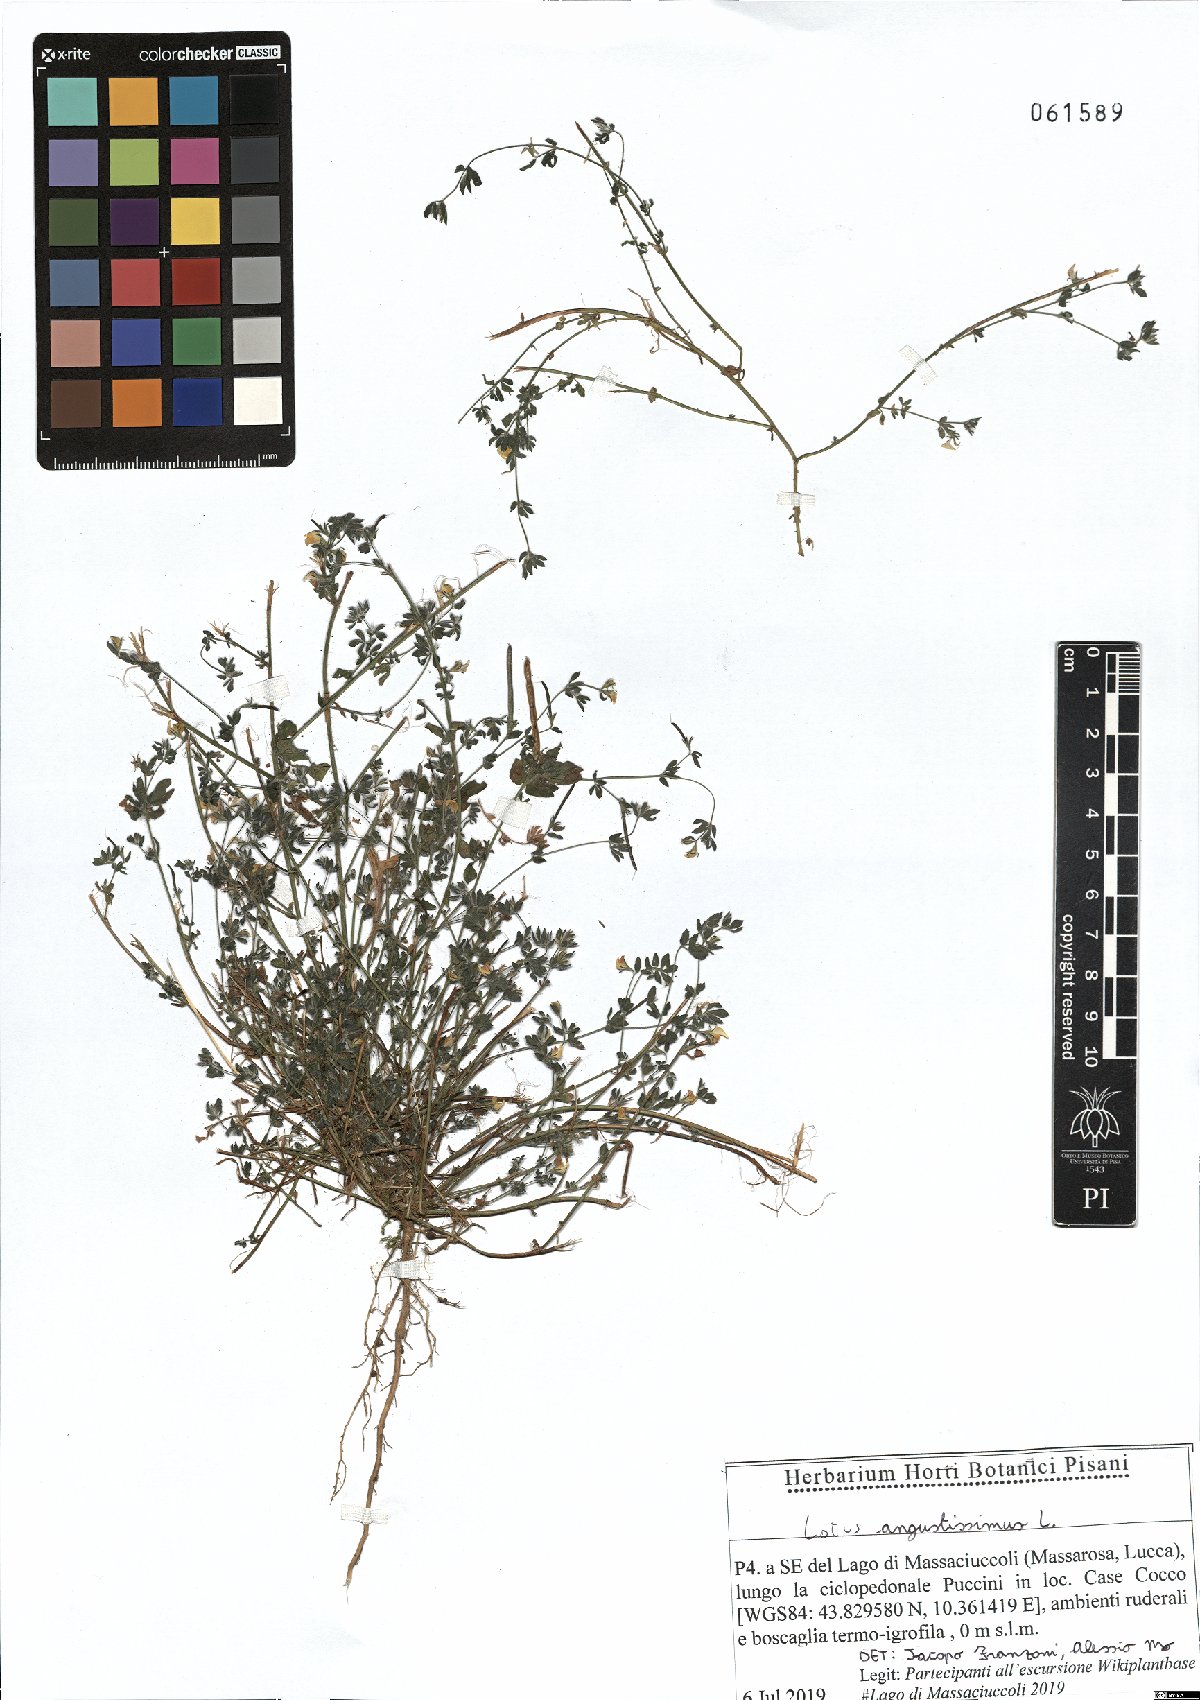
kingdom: Plantae
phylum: Tracheophyta
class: Magnoliopsida
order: Fabales
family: Fabaceae
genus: Lotus
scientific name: Lotus angustissimus
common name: Slender bird's-foot trefoil
